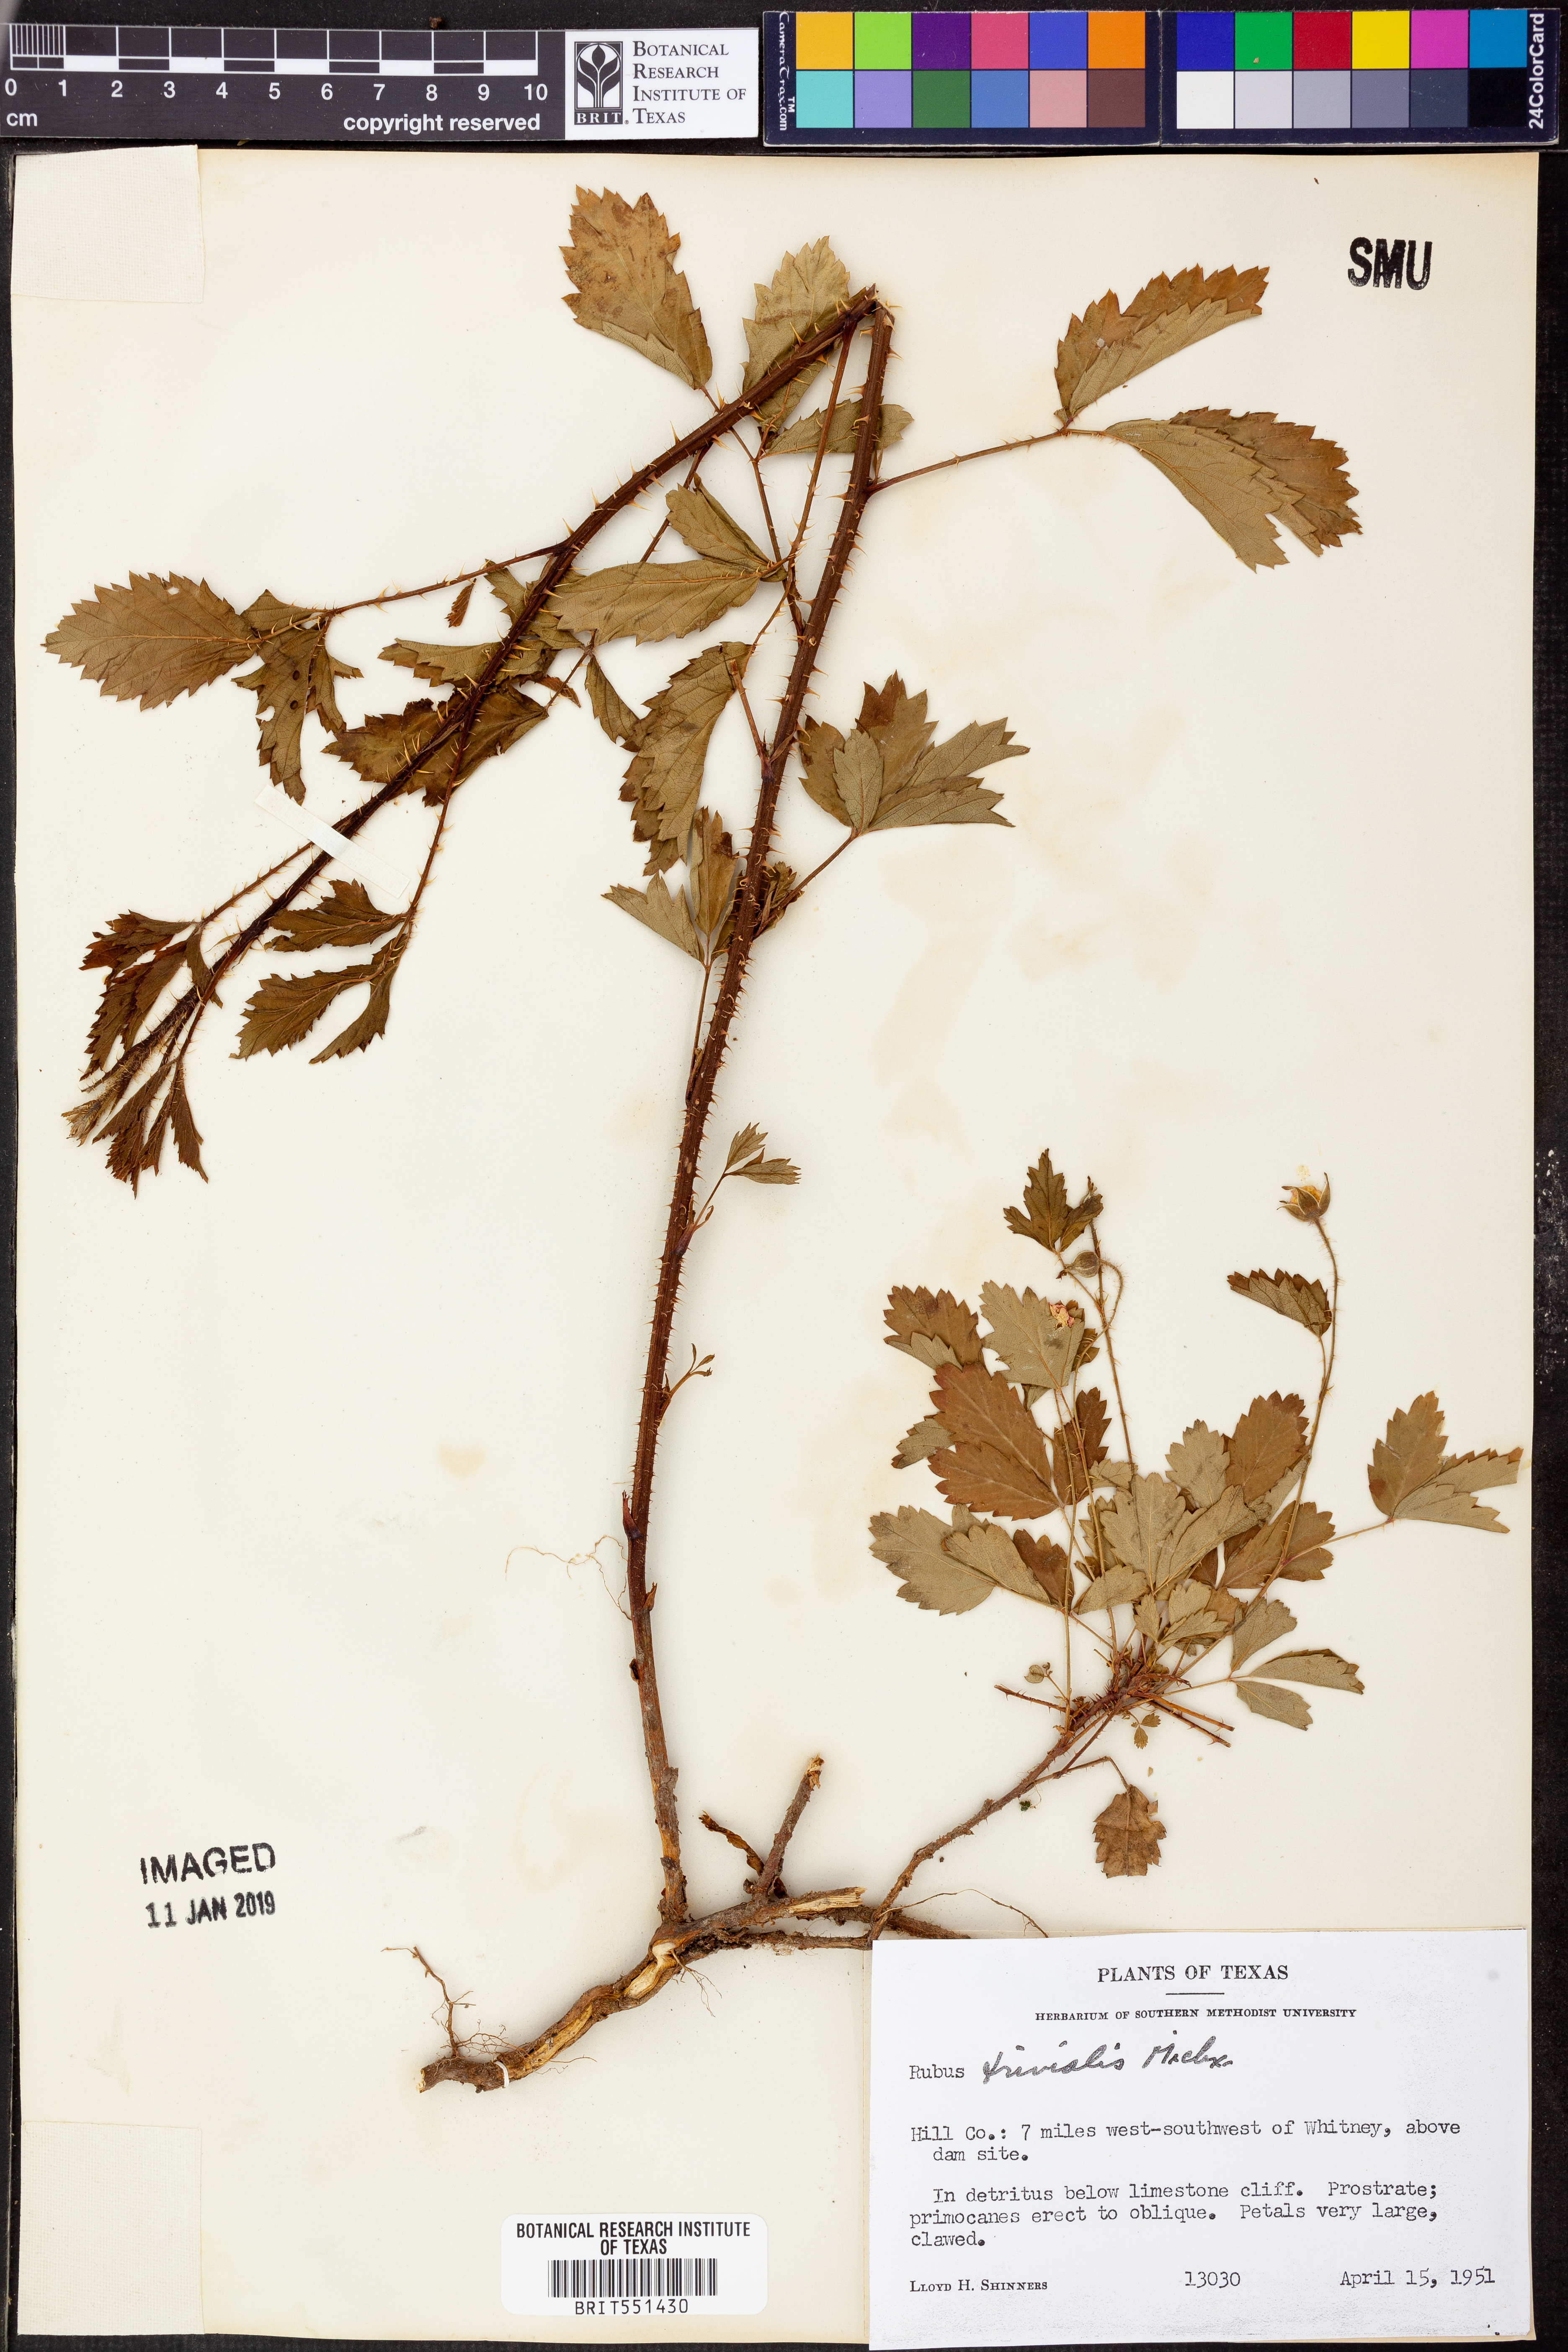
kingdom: Plantae
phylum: Tracheophyta
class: Magnoliopsida
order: Rosales
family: Rosaceae
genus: Rubus
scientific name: Rubus trivialis
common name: Southern dewberry
